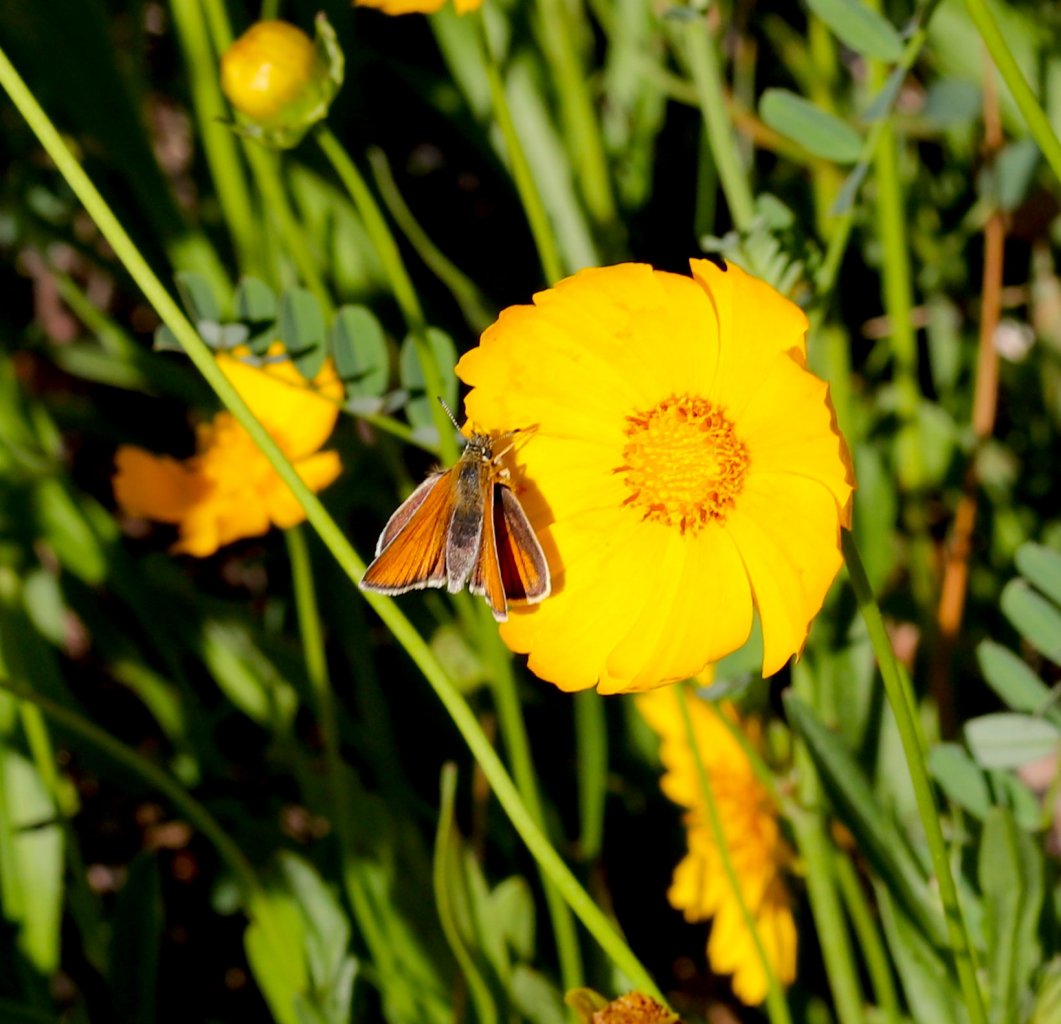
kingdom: Animalia
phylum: Arthropoda
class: Insecta
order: Lepidoptera
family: Hesperiidae
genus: Thymelicus
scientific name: Thymelicus lineola
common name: European Skipper
